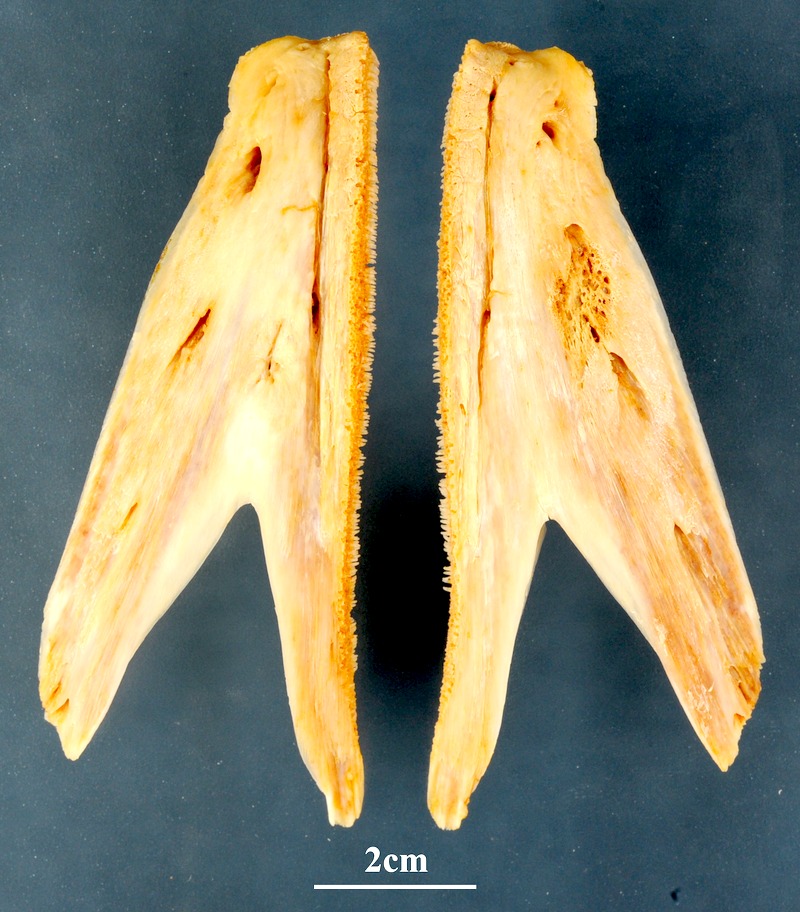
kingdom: Animalia
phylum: Chordata
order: Perciformes
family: Carangidae
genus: Lichia
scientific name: Lichia amia
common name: Leerfish
